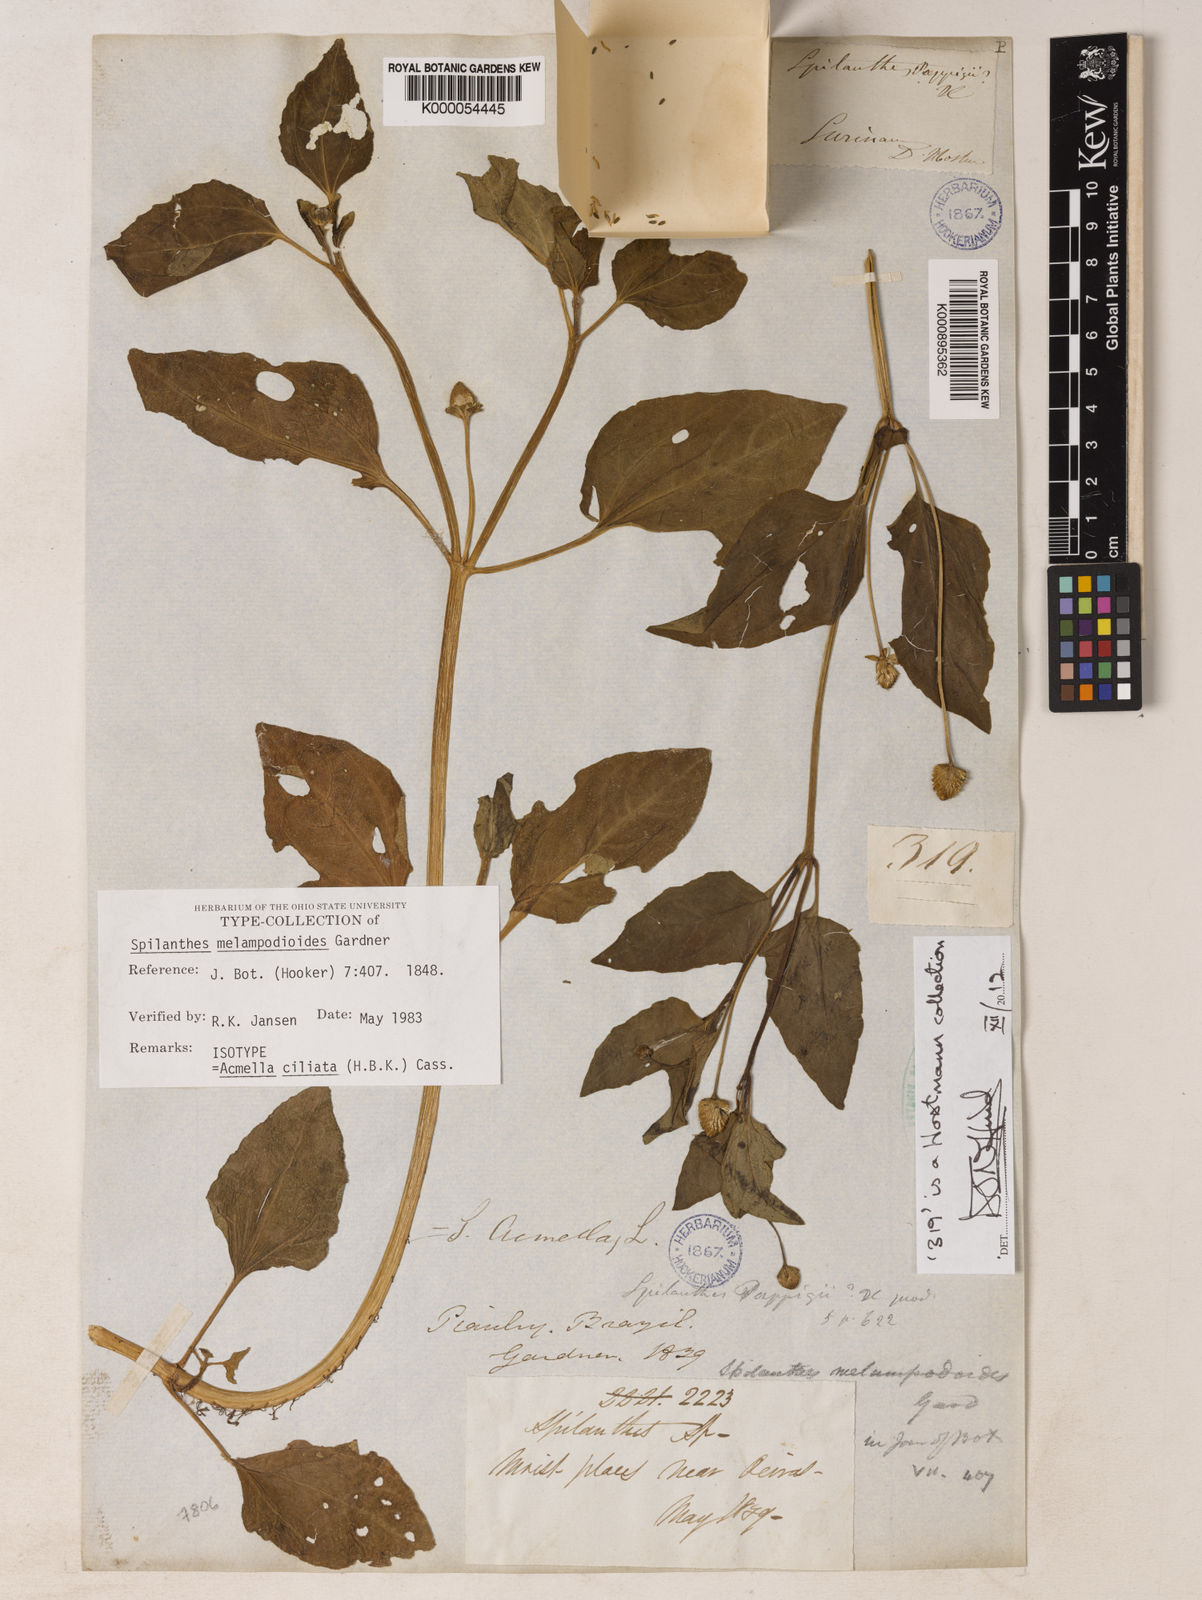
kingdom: Plantae
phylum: Tracheophyta
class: Magnoliopsida
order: Asterales
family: Asteraceae
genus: Acmella
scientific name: Acmella ciliata
